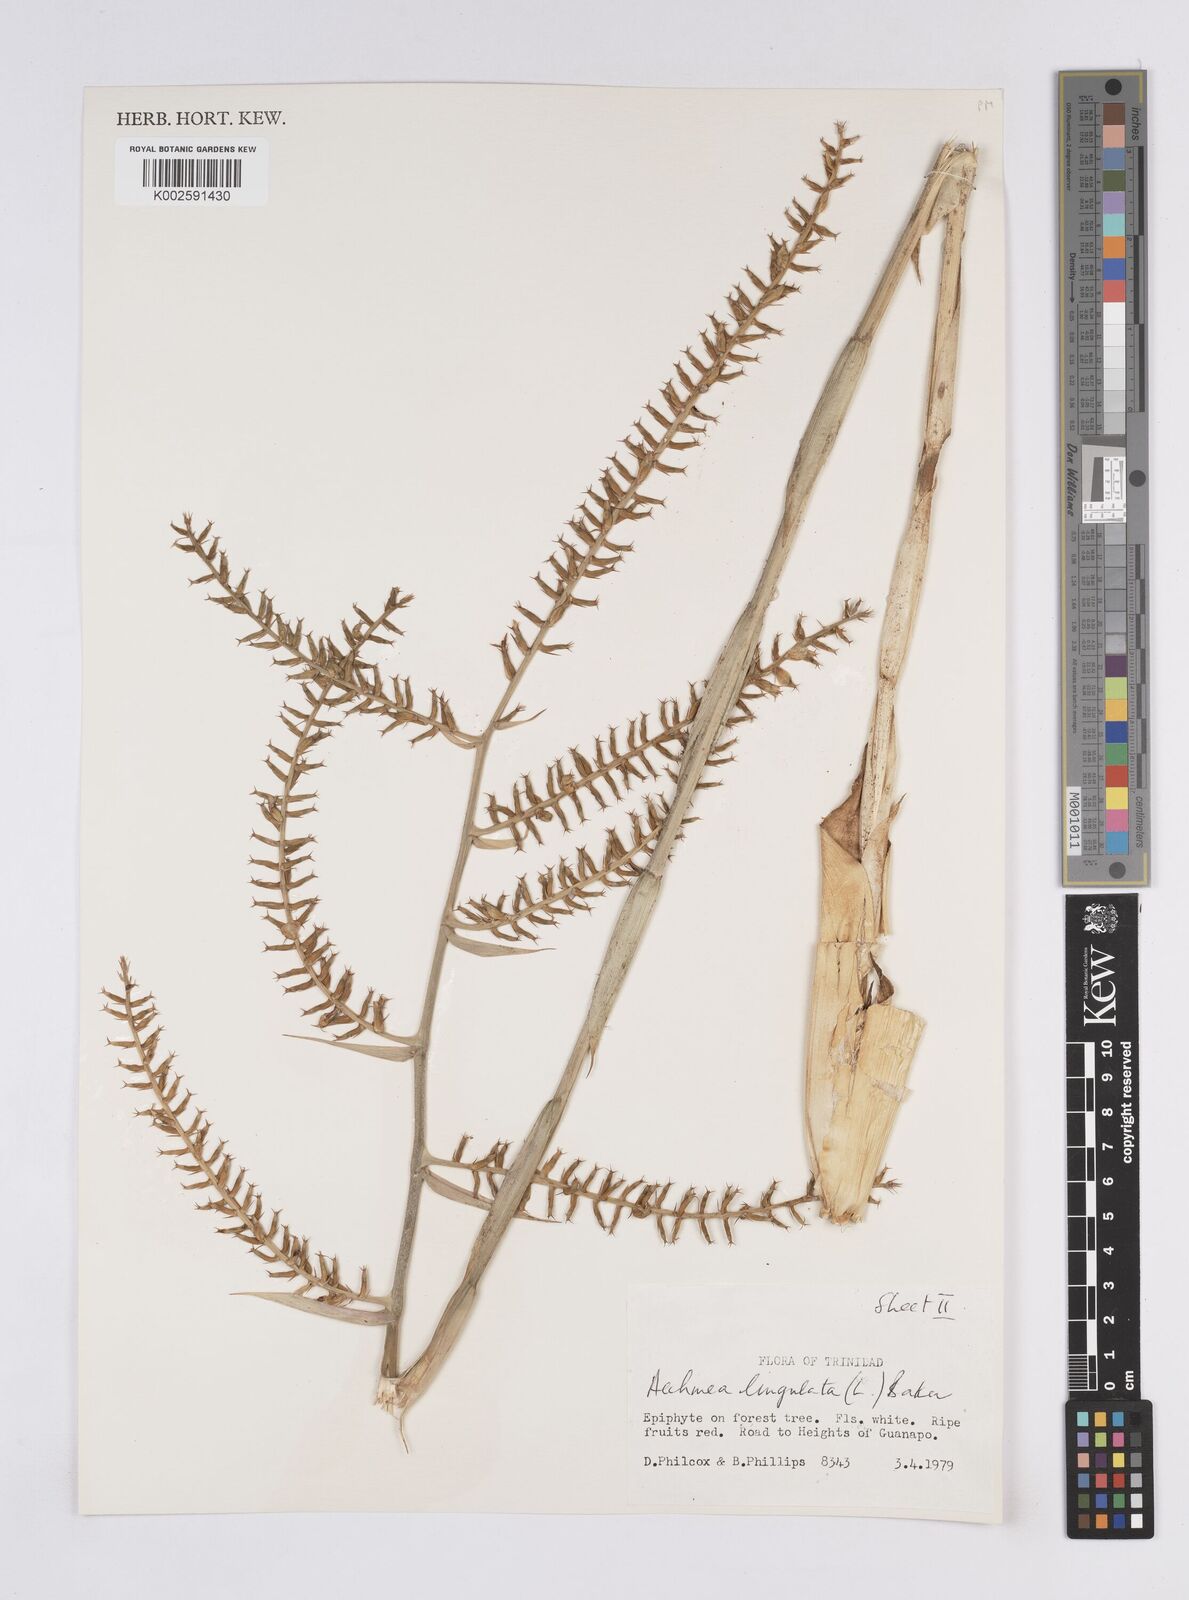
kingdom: Plantae
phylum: Tracheophyta
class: Liliopsida
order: Poales
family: Bromeliaceae
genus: Wittmackia
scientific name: Wittmackia lingulata
